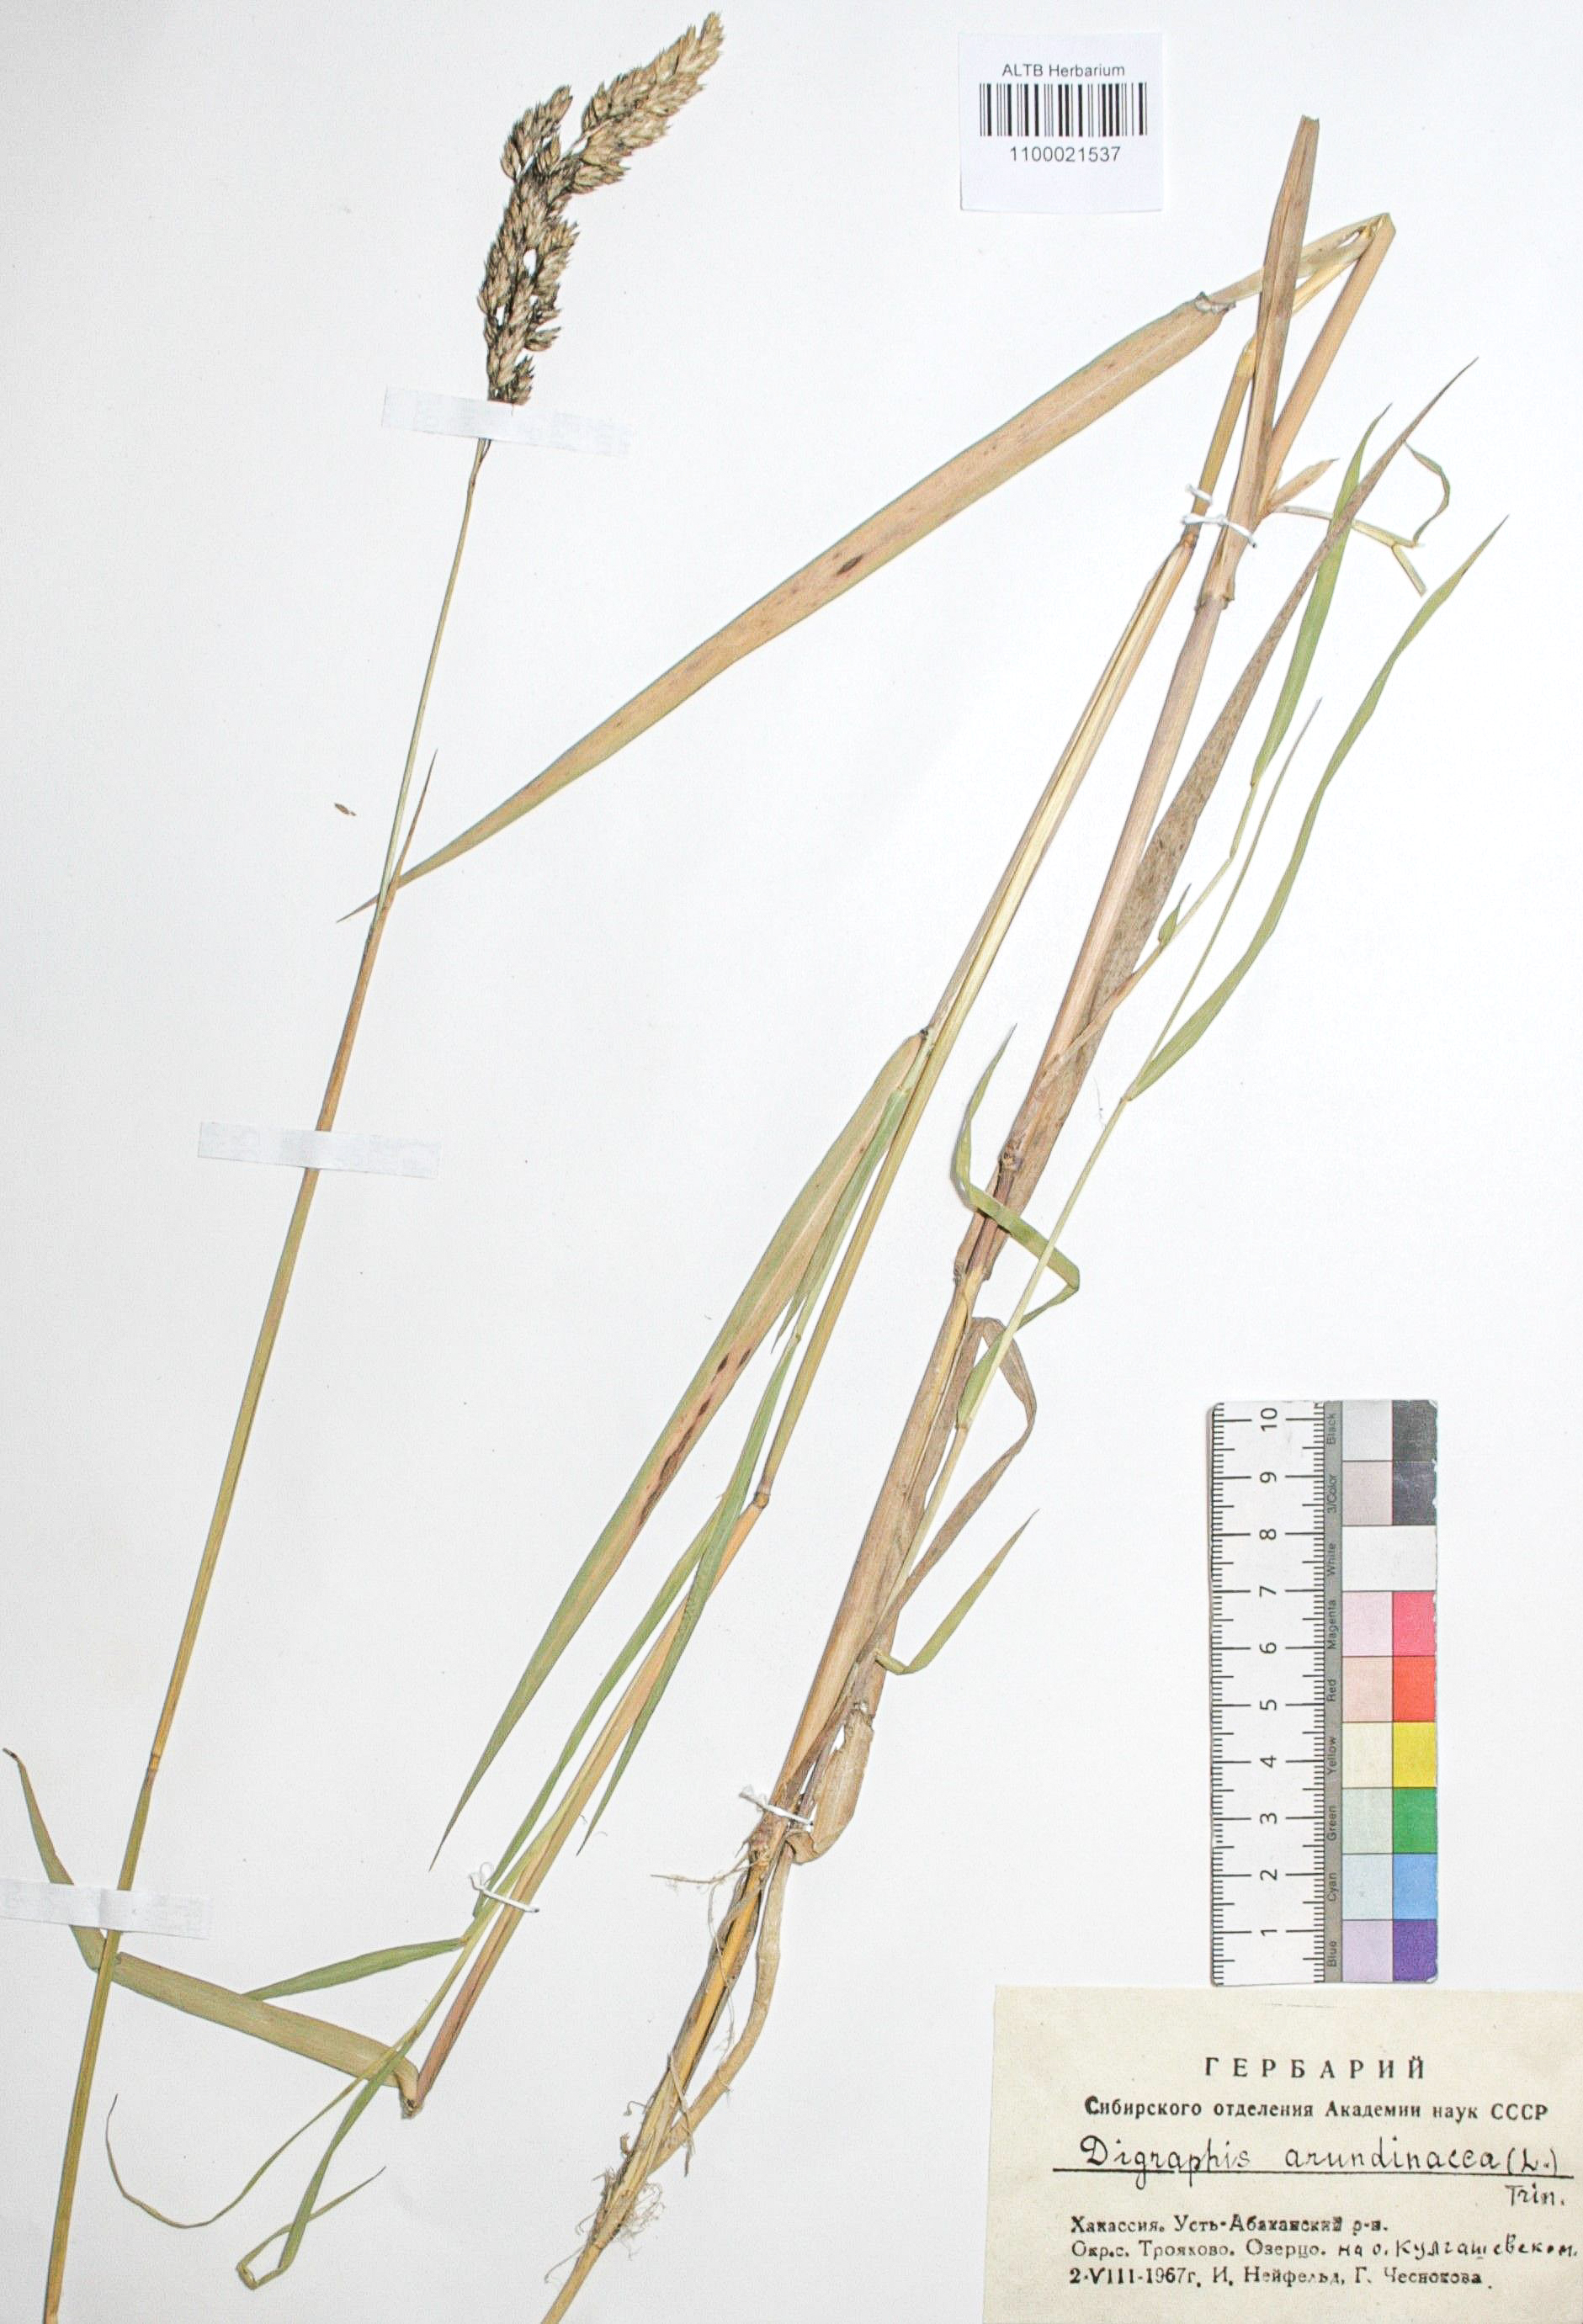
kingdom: Plantae
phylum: Tracheophyta
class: Liliopsida
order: Poales
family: Poaceae
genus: Phalaris
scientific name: Phalaris arundinacea
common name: Reed canary-grass
